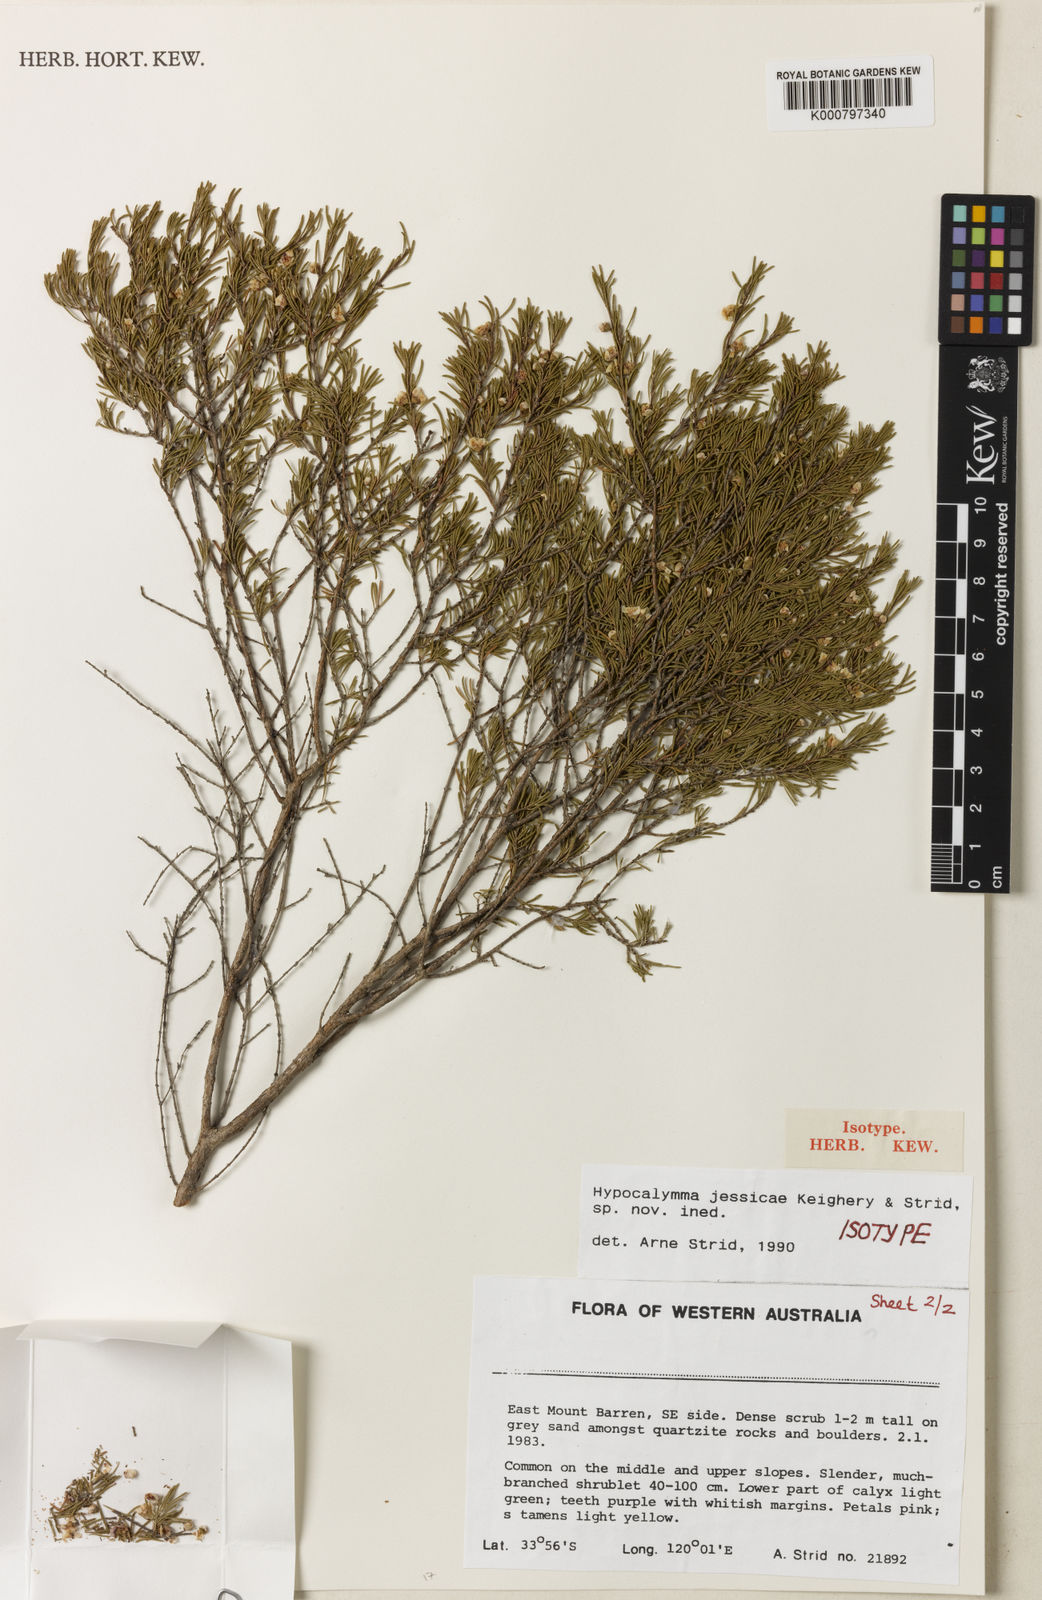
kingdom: Plantae
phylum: Tracheophyta
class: Magnoliopsida
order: Myrtales
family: Myrtaceae
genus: Hypocalymma
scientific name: Hypocalymma jessicae
